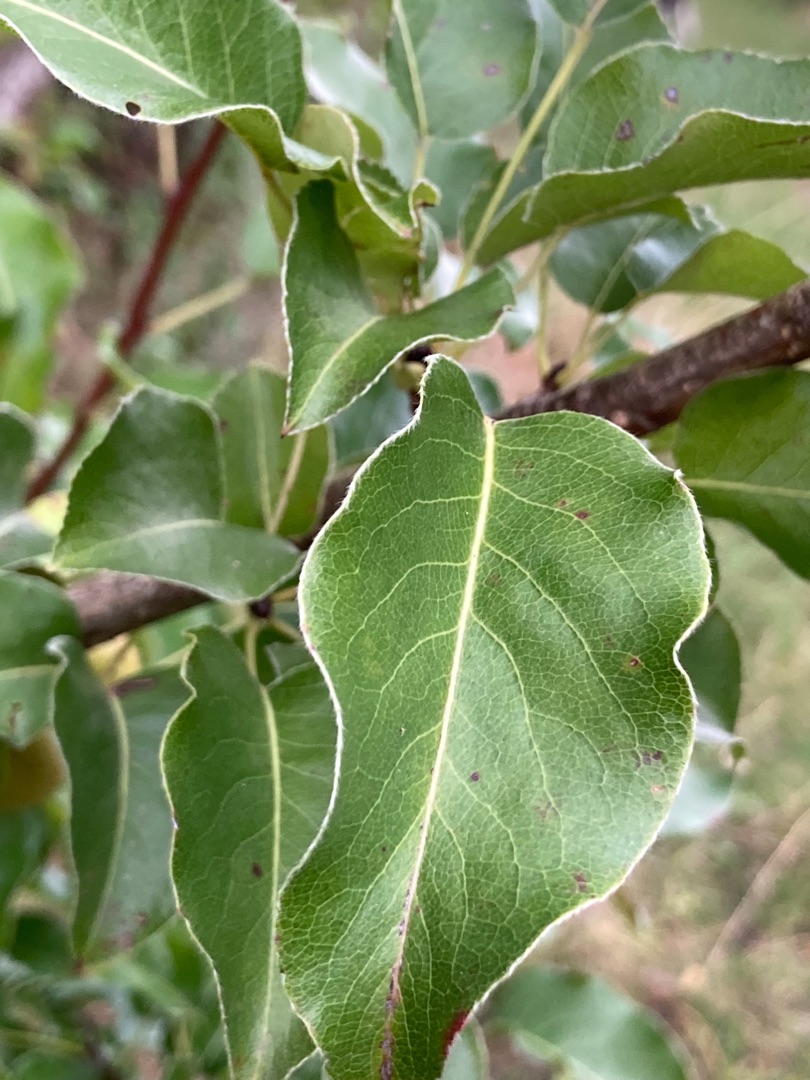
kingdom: Plantae
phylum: Tracheophyta
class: Magnoliopsida
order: Rosales
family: Rosaceae
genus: Pyrus
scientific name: Pyrus communis
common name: Pære
